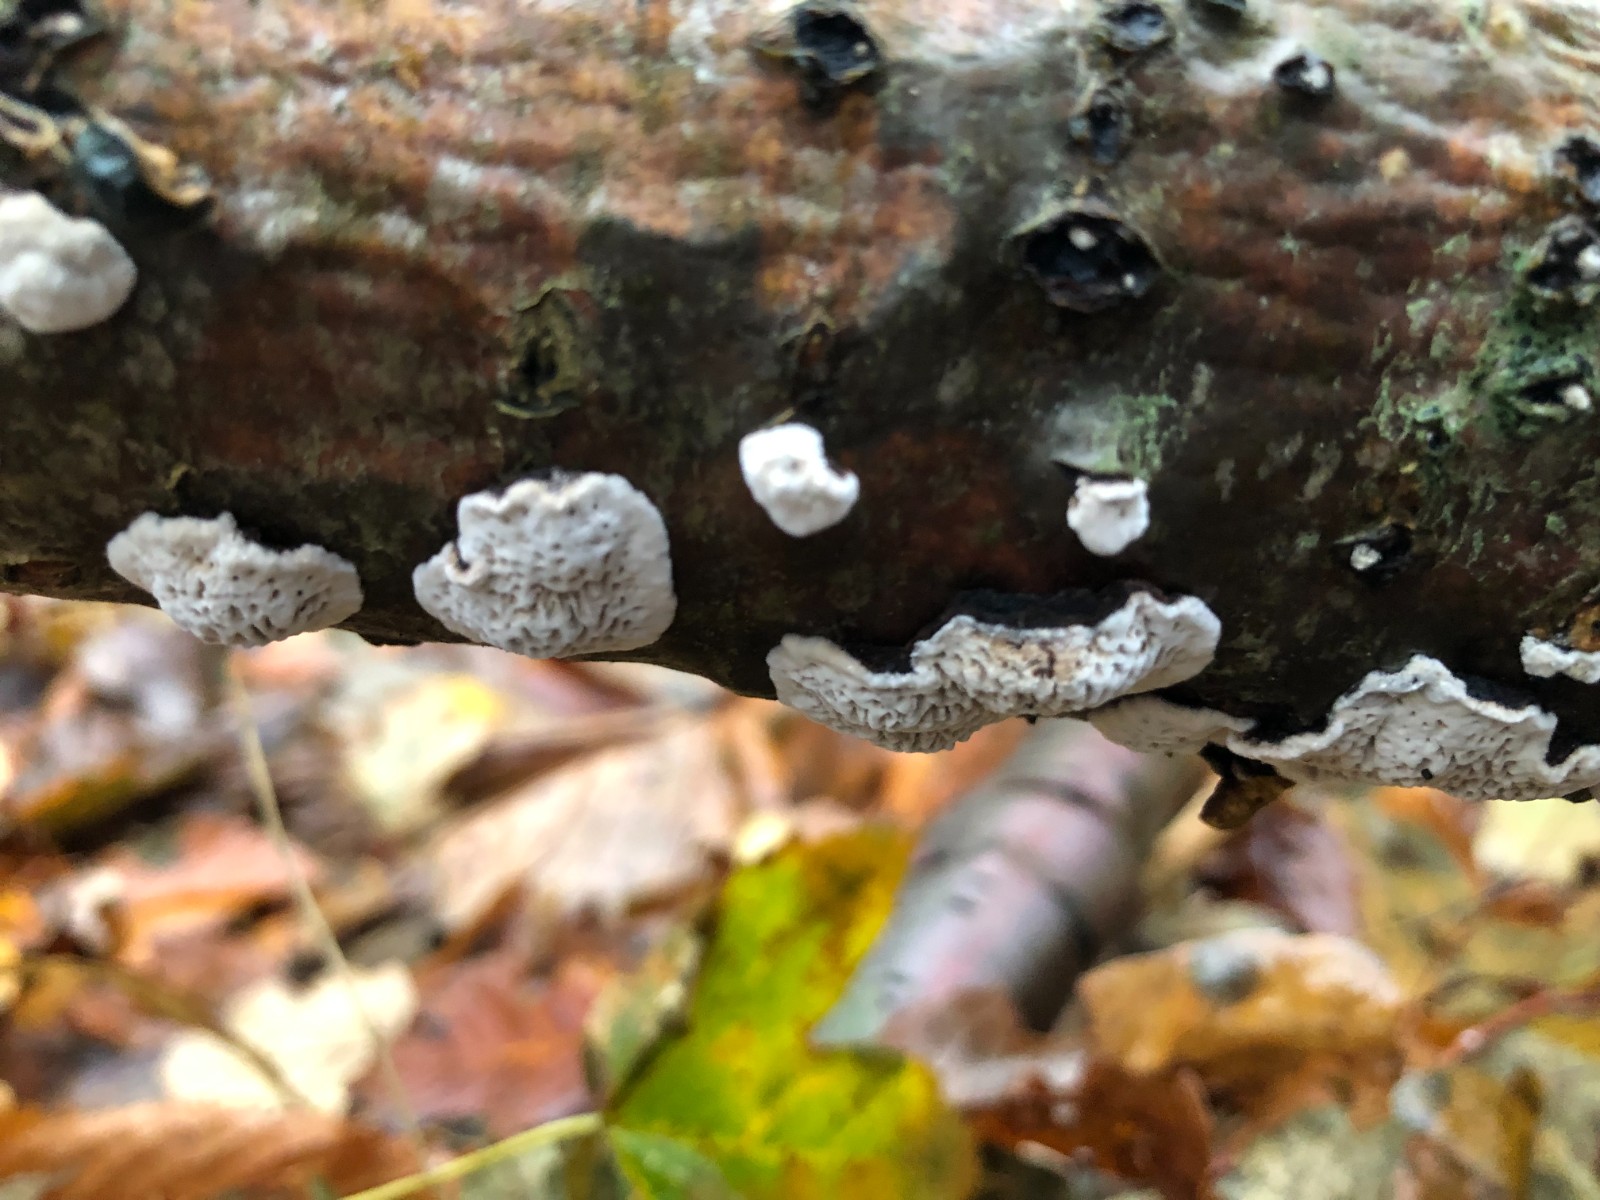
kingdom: Fungi
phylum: Basidiomycota
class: Agaricomycetes
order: Polyporales
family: Polyporaceae
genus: Podofomes
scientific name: Podofomes mollis
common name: blød begporesvamp
